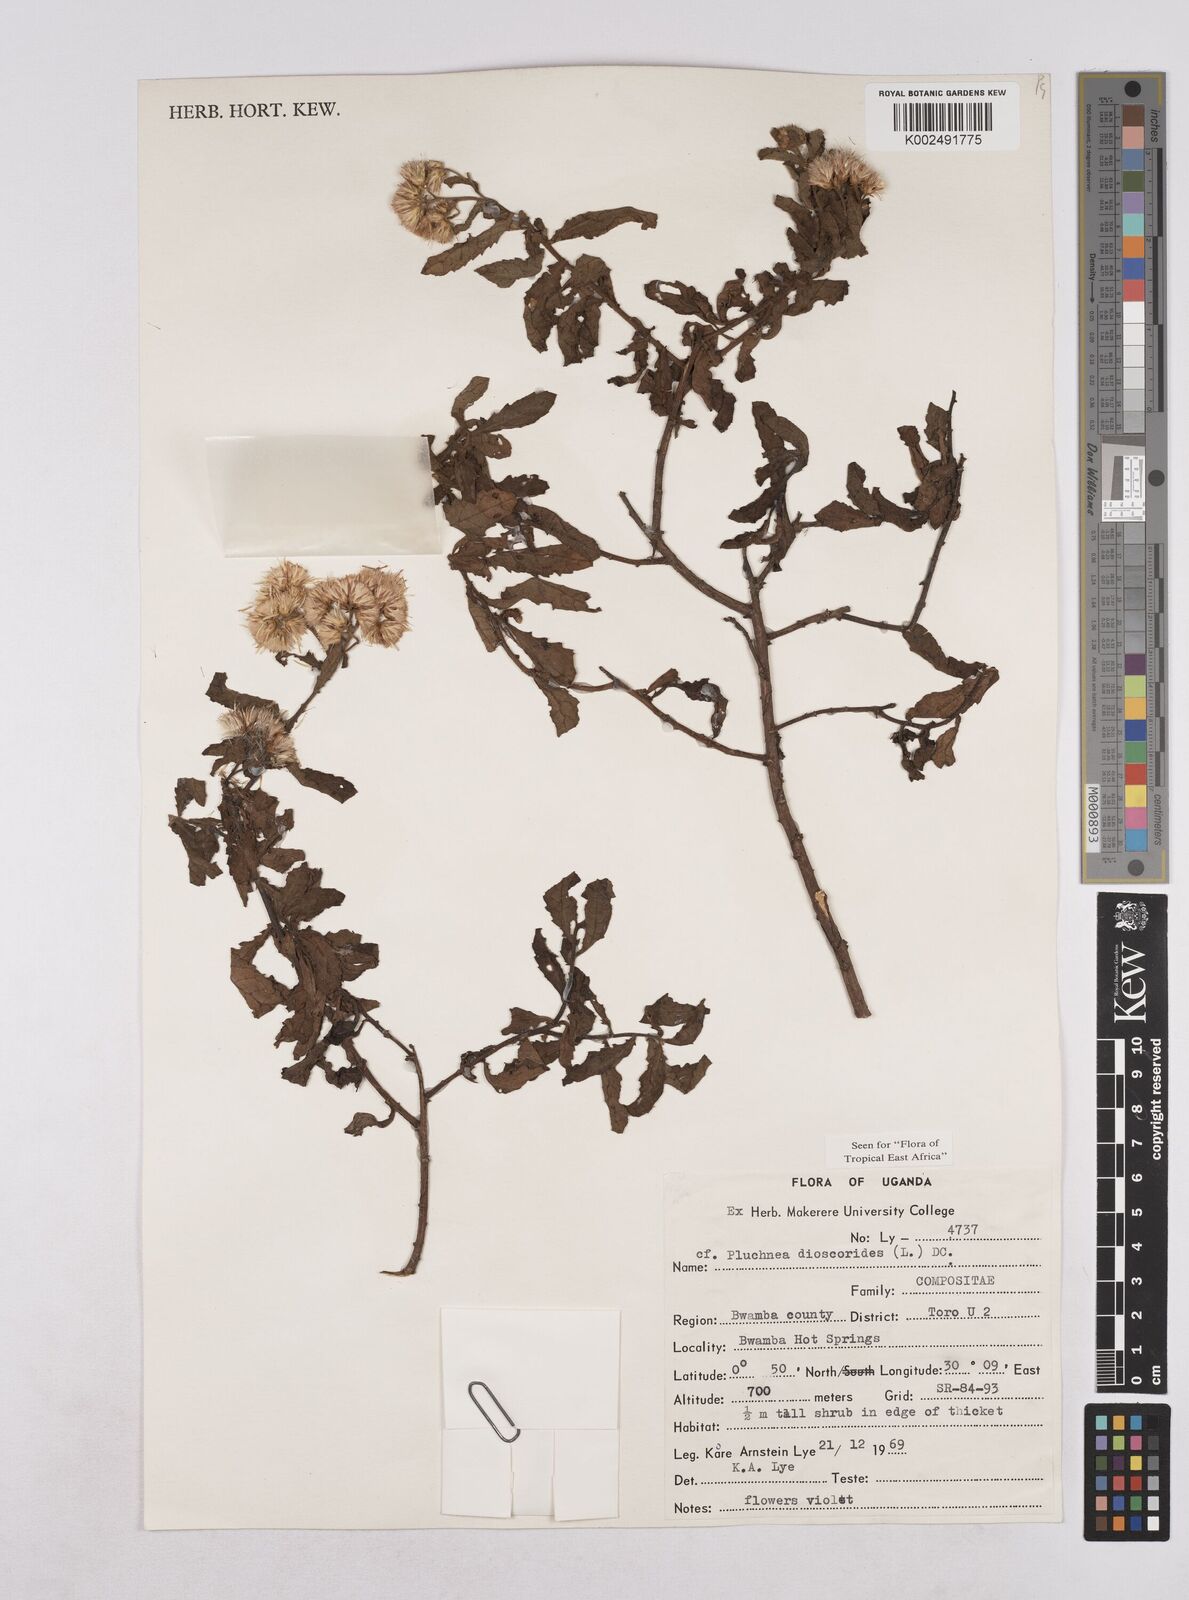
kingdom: Plantae
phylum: Tracheophyta
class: Magnoliopsida
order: Asterales
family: Asteraceae
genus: Pluchea
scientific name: Pluchea dioscoridis
